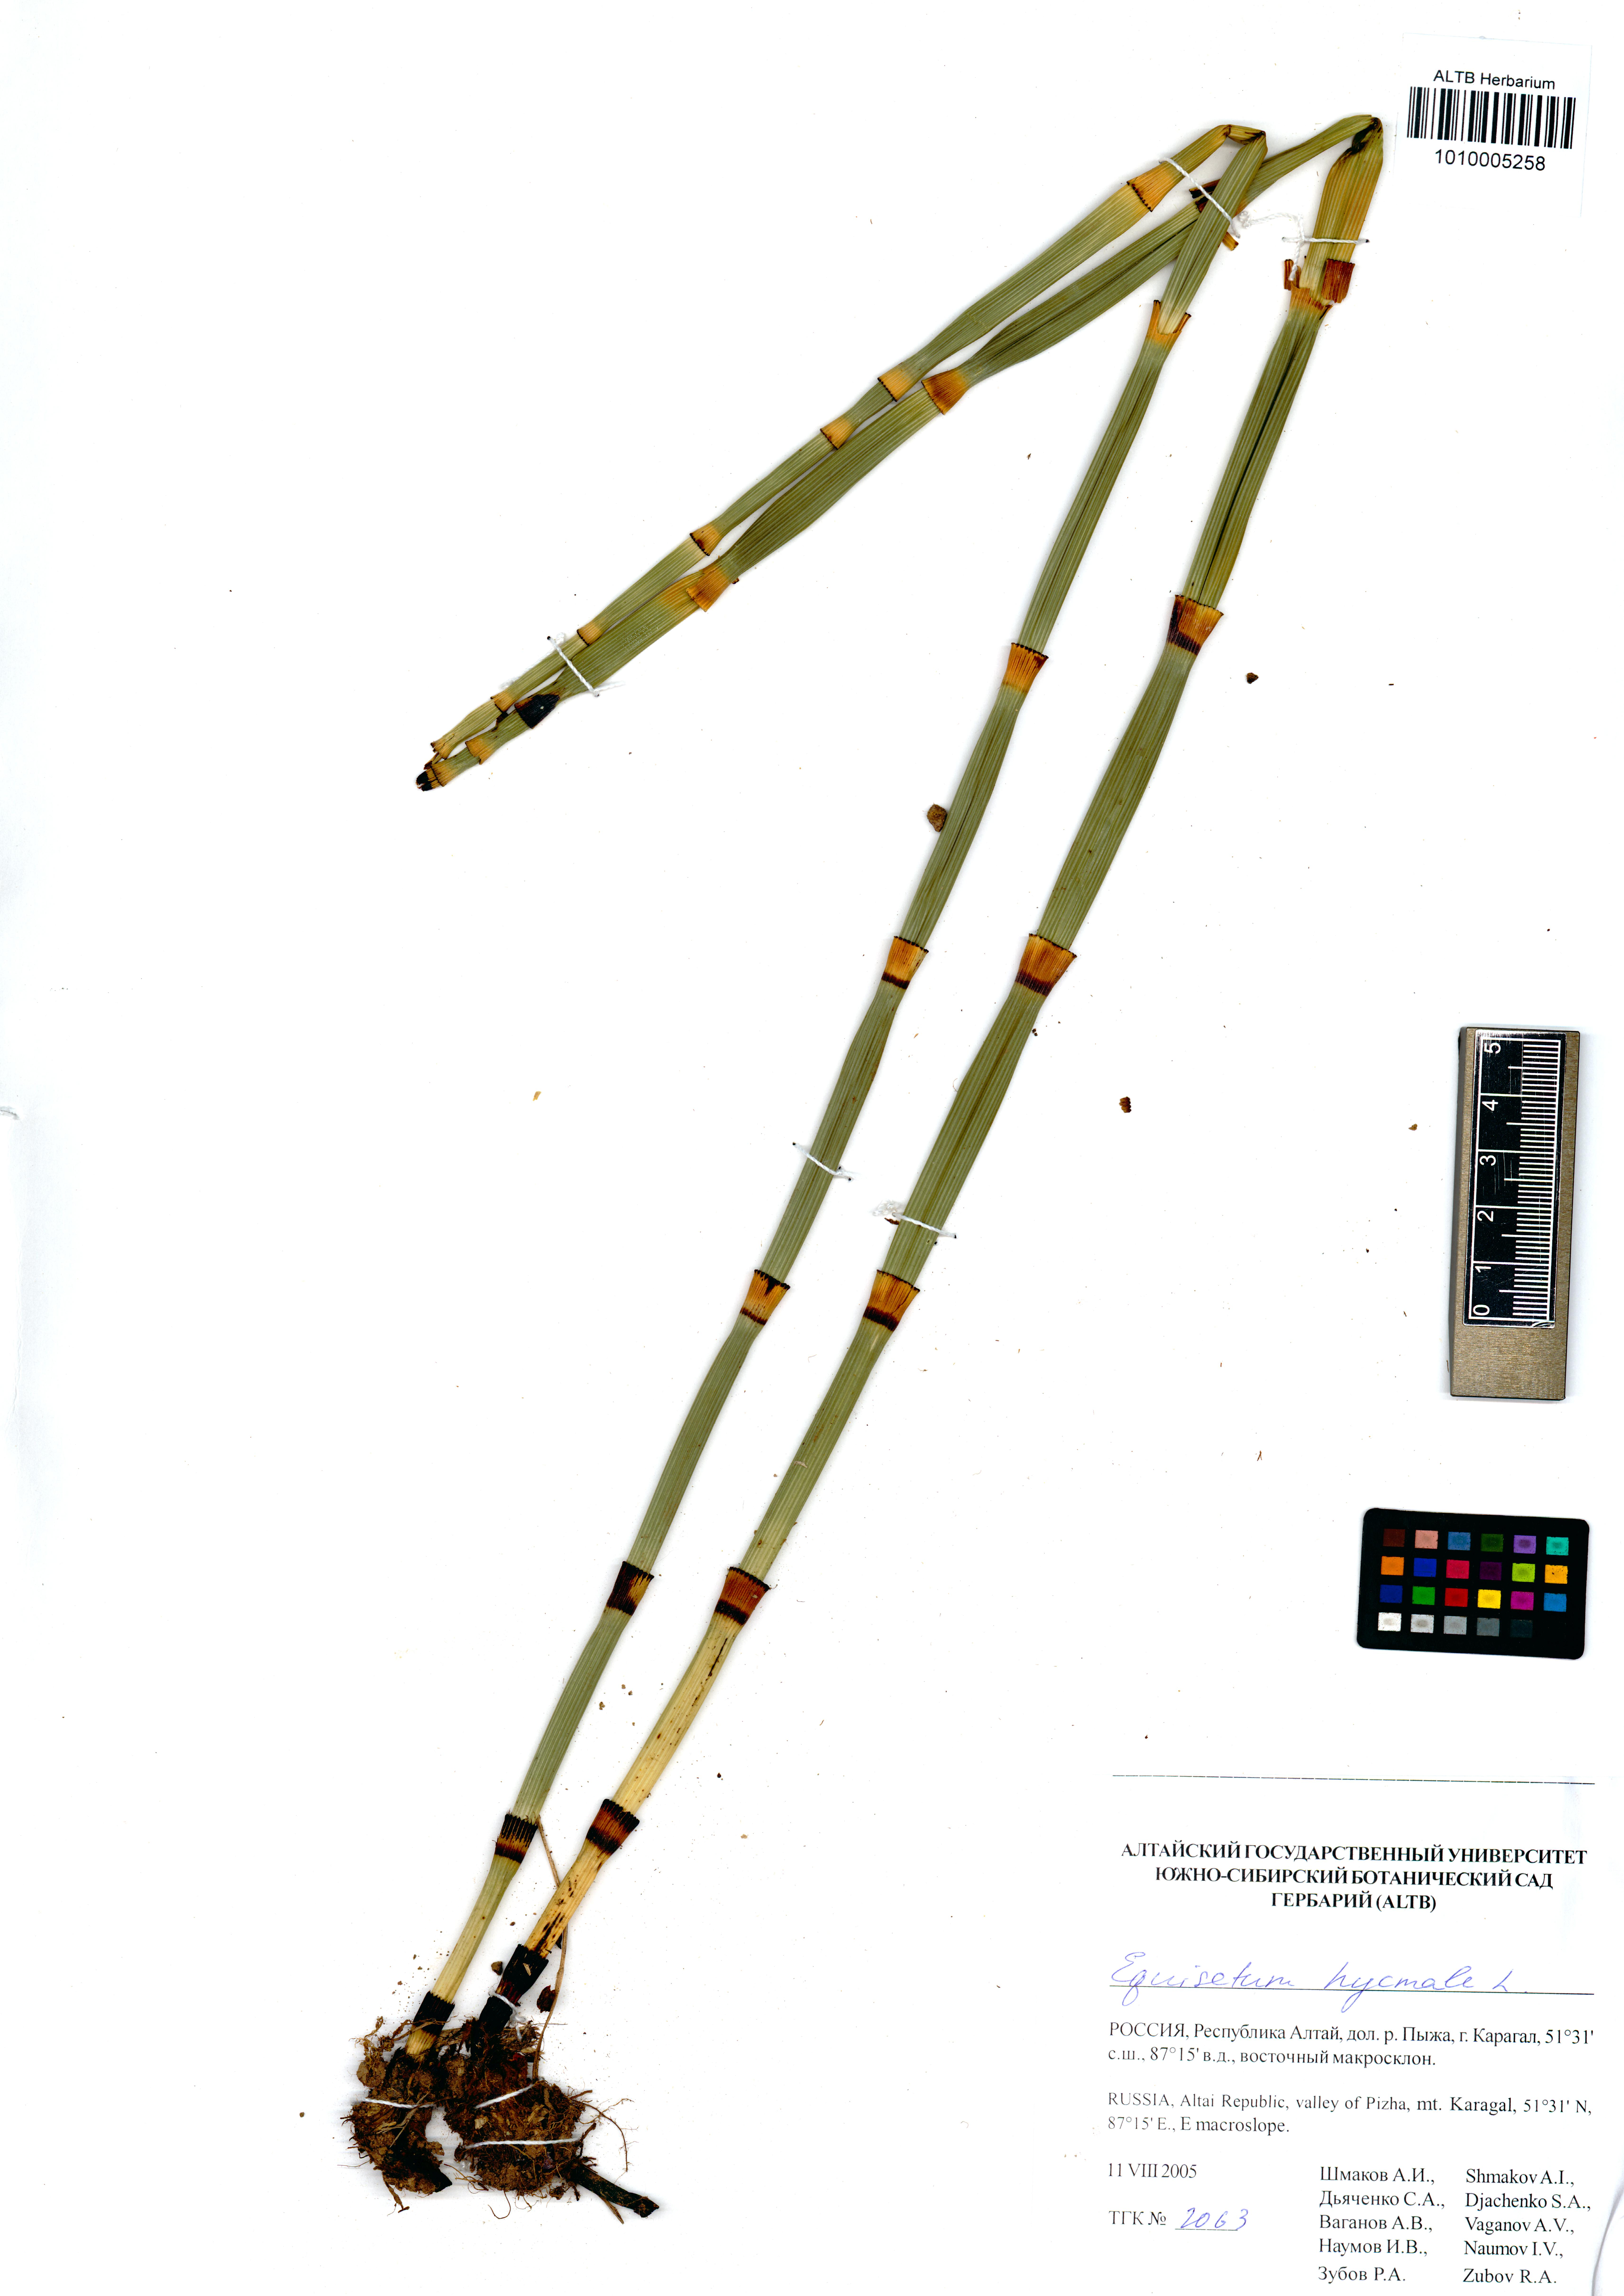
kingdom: Plantae
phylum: Tracheophyta
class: Polypodiopsida
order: Equisetales
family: Equisetaceae
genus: Equisetum
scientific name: Equisetum hyemale
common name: Rough horsetail
